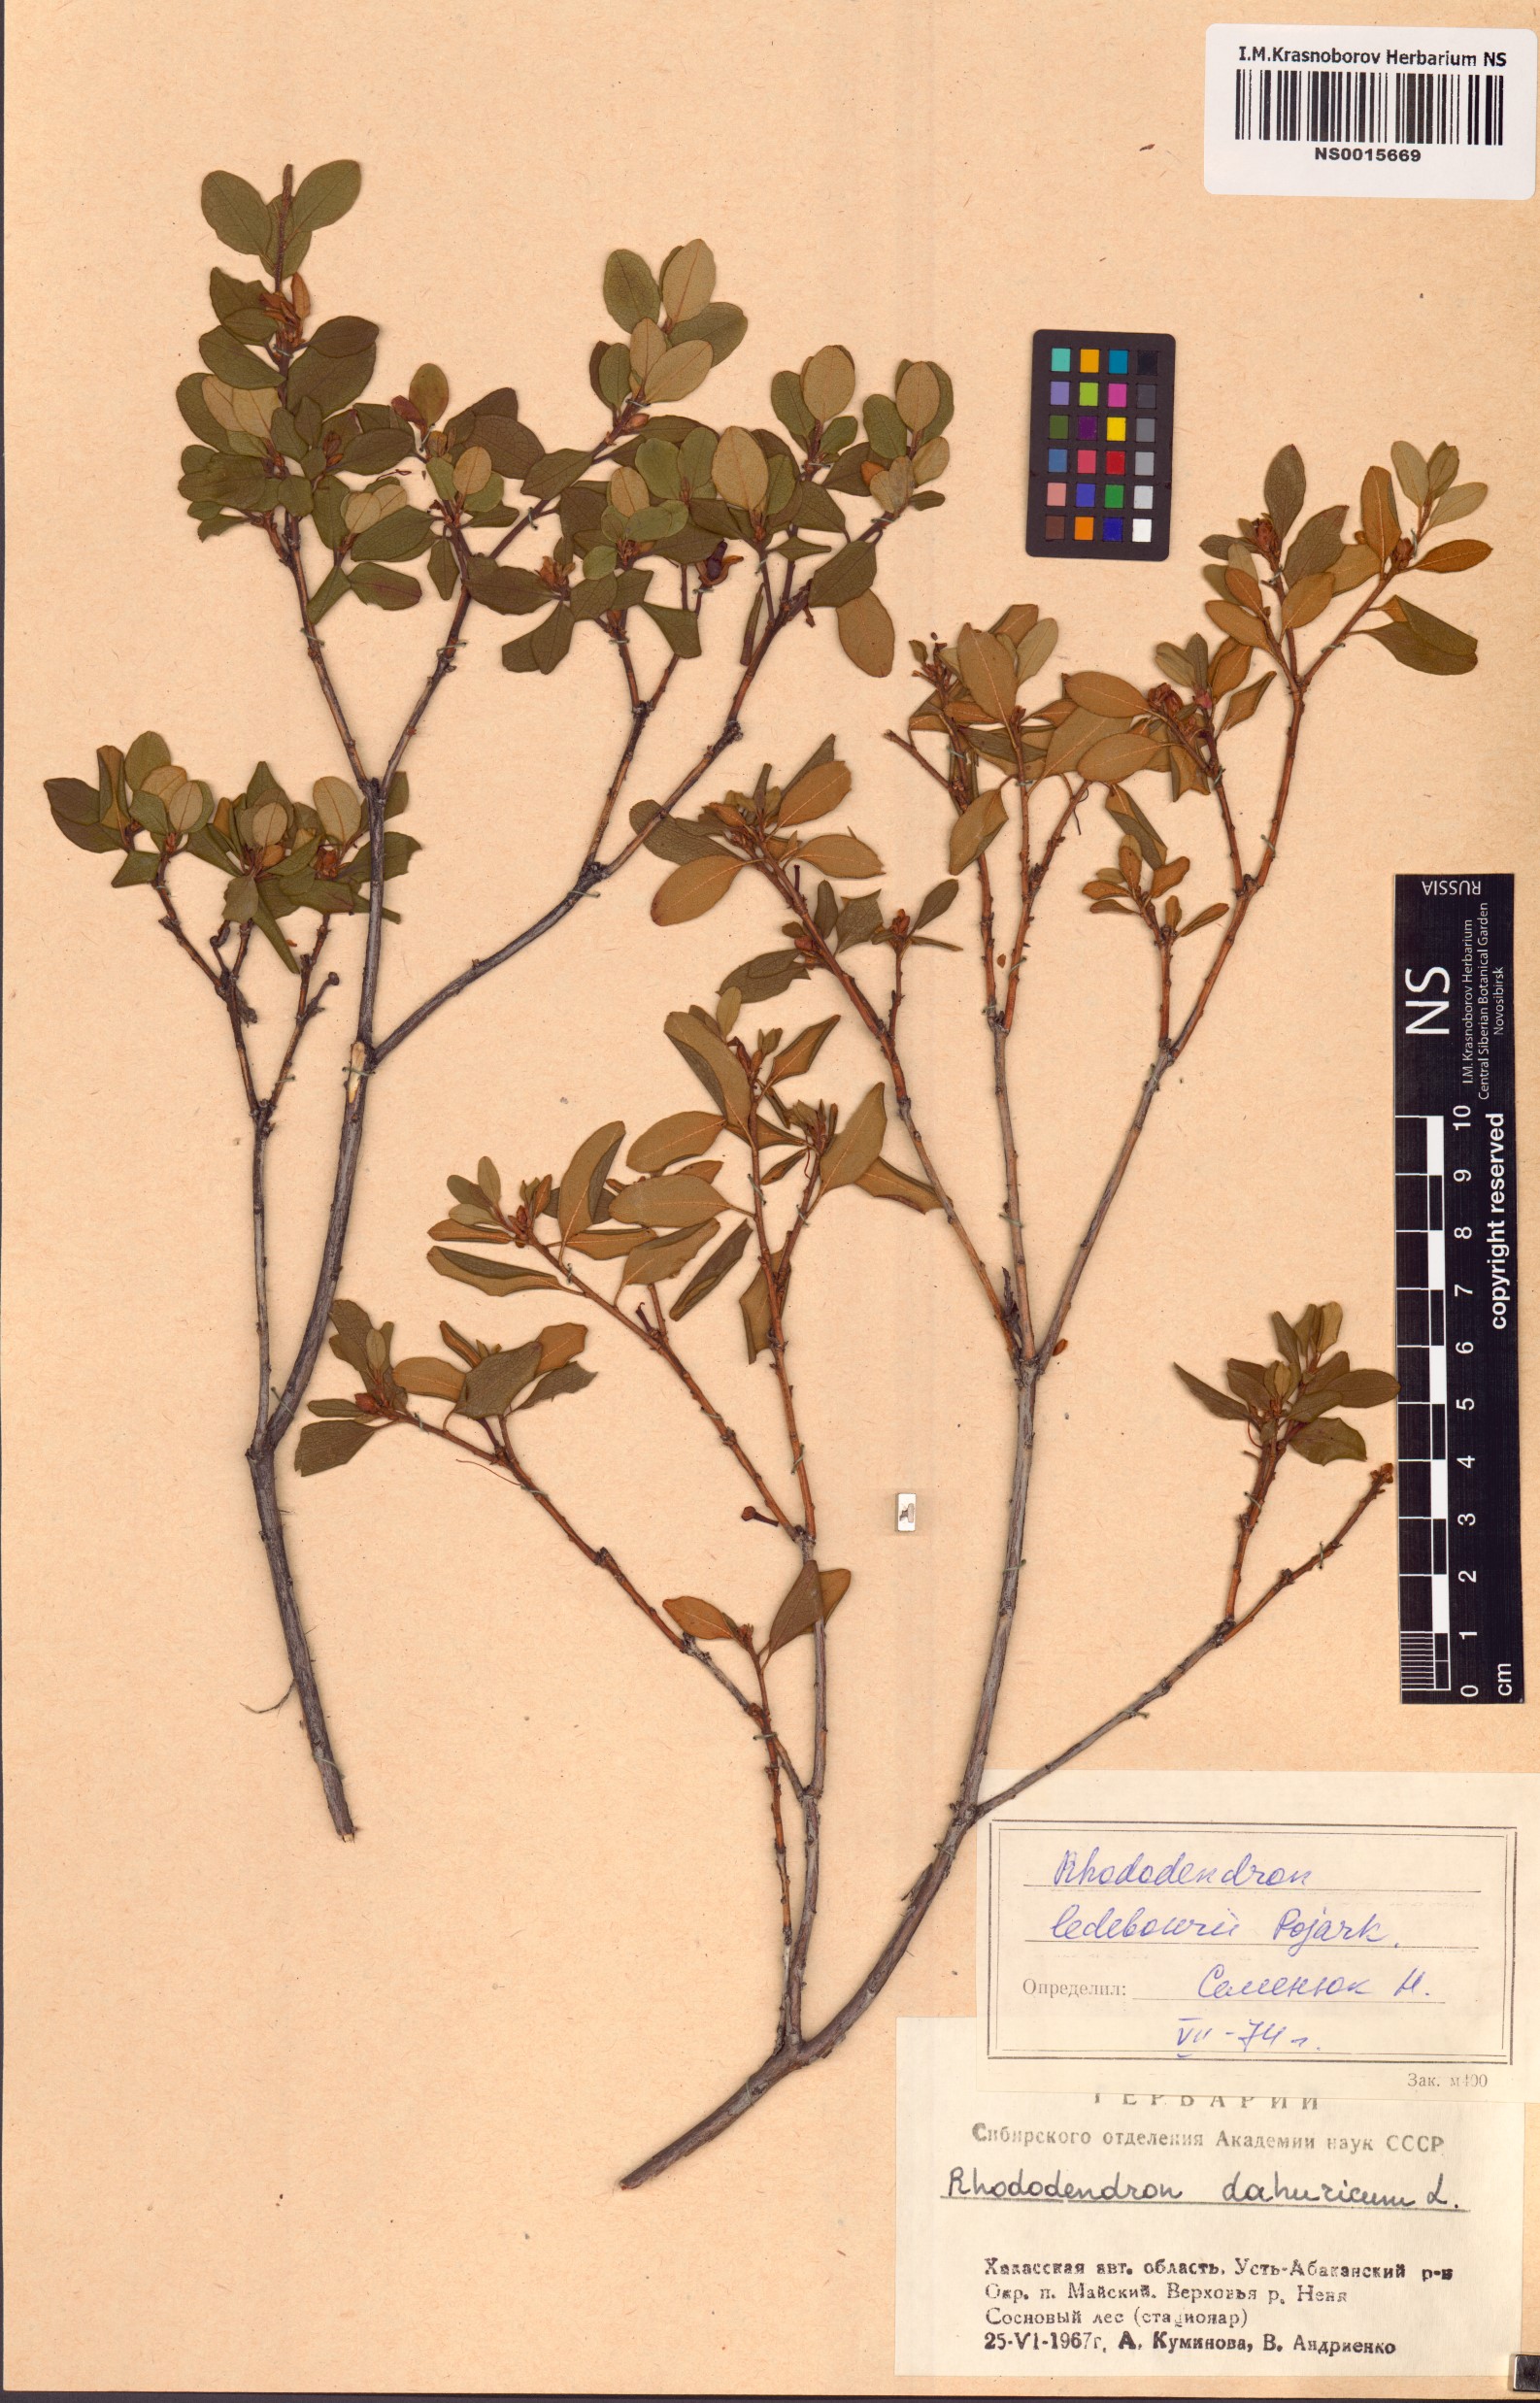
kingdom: Plantae
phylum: Tracheophyta
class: Magnoliopsida
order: Ericales
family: Ericaceae
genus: Rhododendron
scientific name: Rhododendron dauricum
